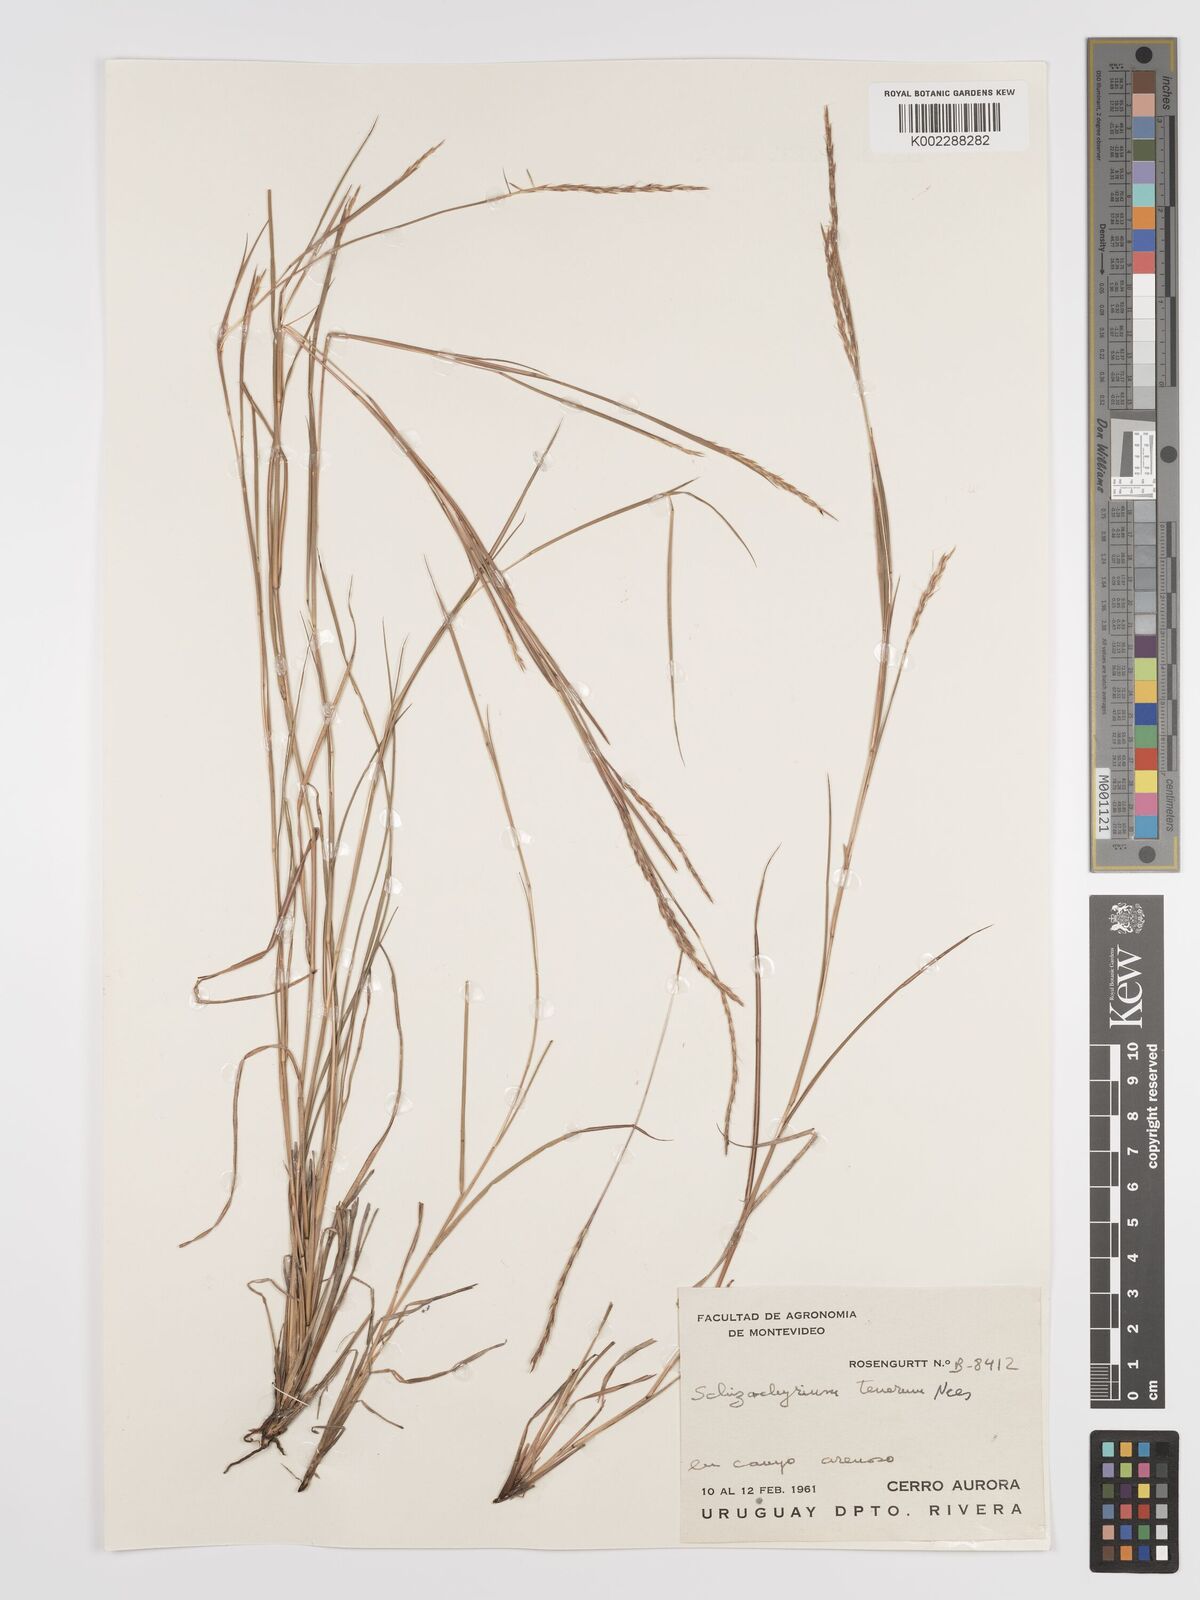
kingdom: Plantae
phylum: Tracheophyta
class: Liliopsida
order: Poales
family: Poaceae
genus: Andropogon
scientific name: Andropogon tener
